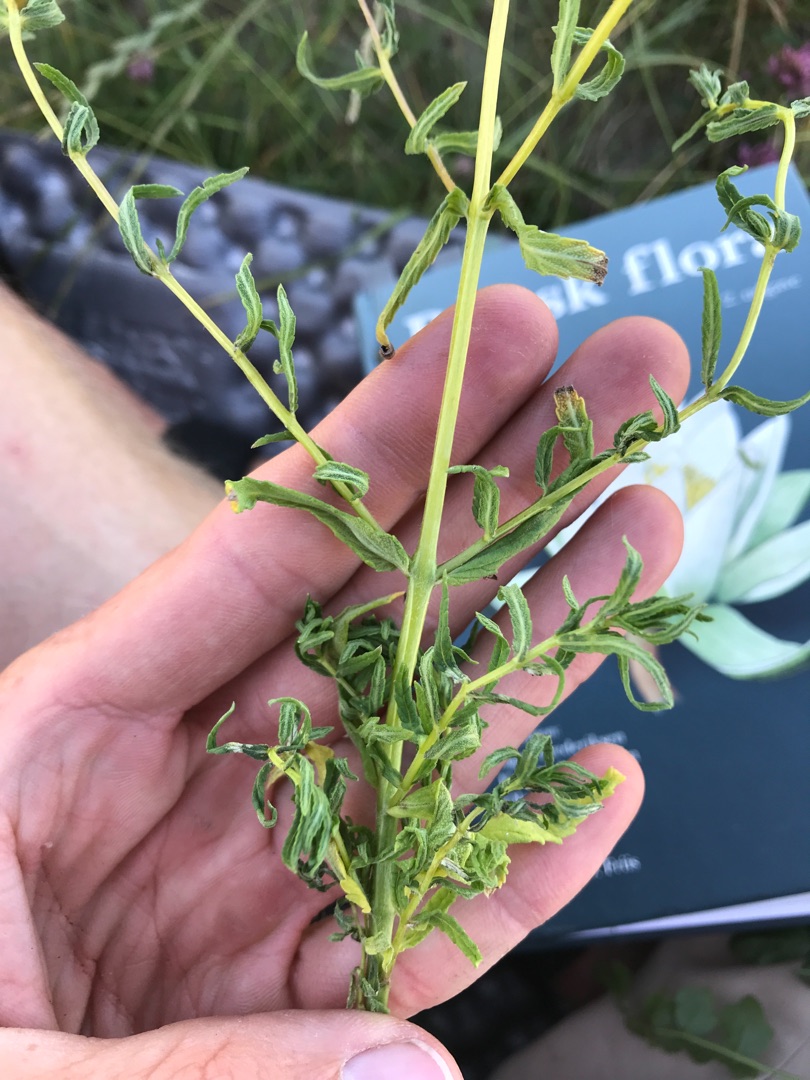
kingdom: Plantae
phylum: Tracheophyta
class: Magnoliopsida
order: Lamiales
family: Orobanchaceae
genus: Rhinanthus
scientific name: Rhinanthus
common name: Skjallerslægten
